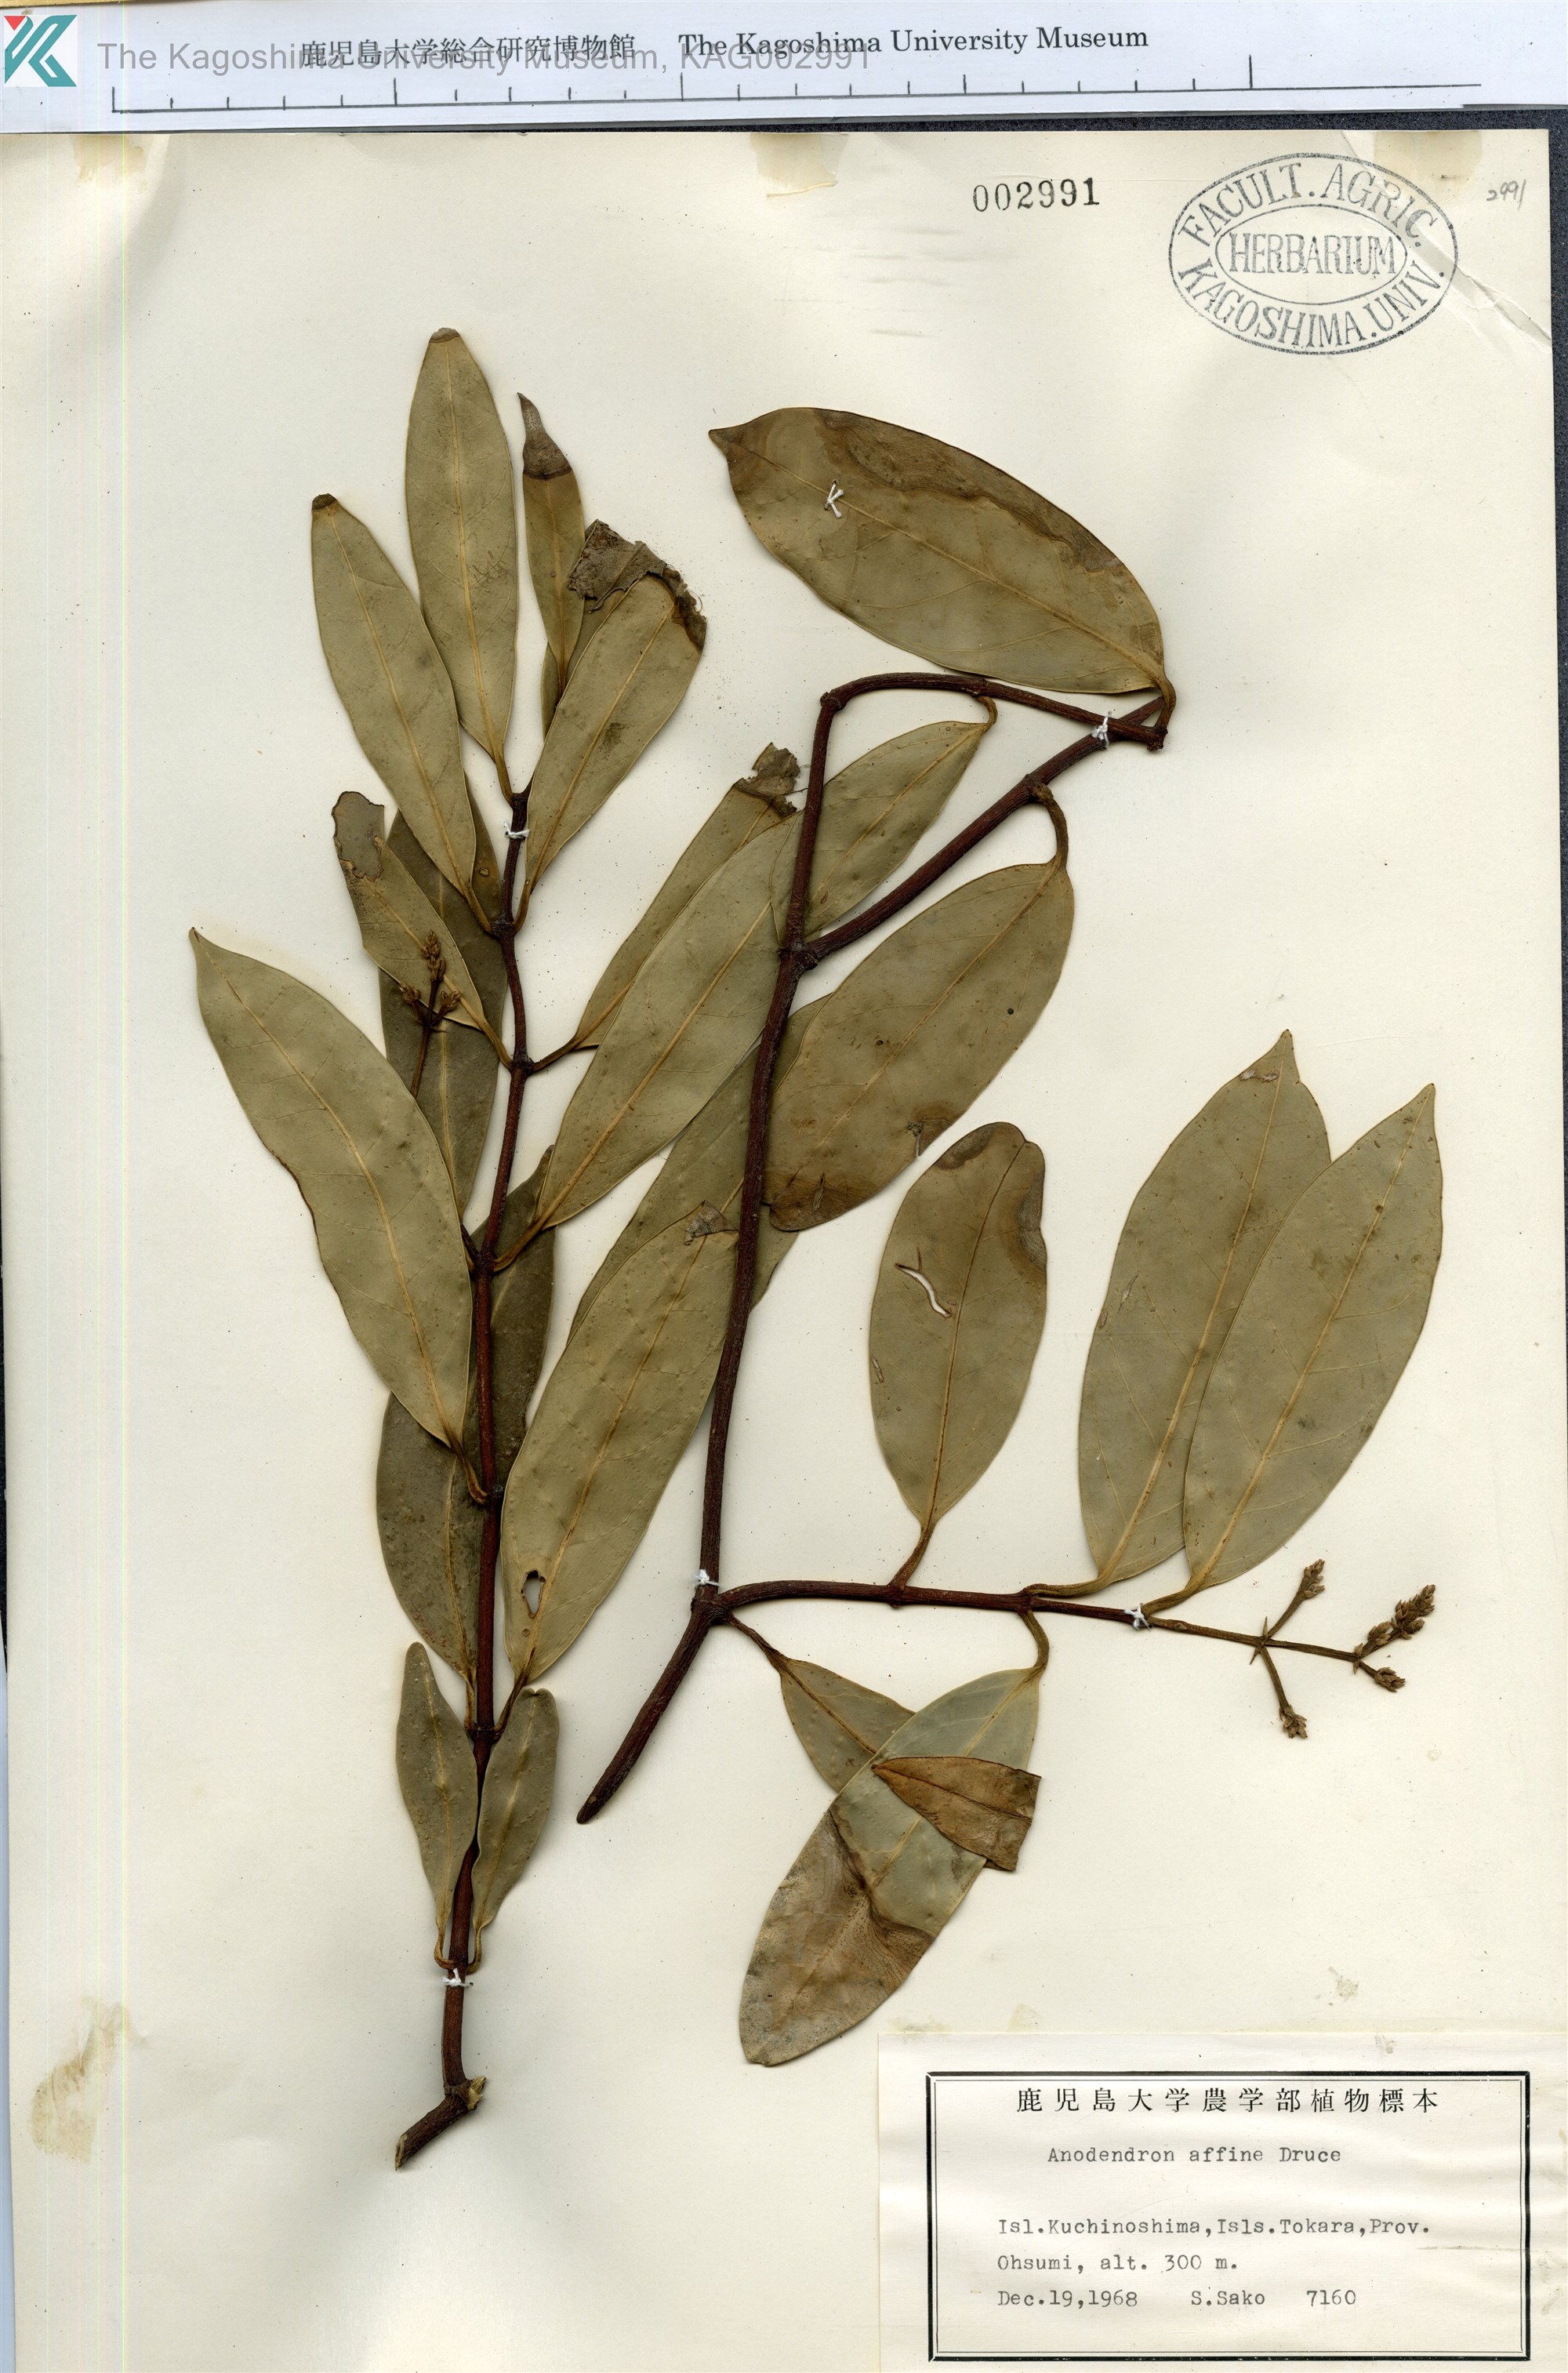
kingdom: Plantae
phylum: Tracheophyta
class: Magnoliopsida
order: Gentianales
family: Apocynaceae
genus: Anodendron
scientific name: Anodendron affine
